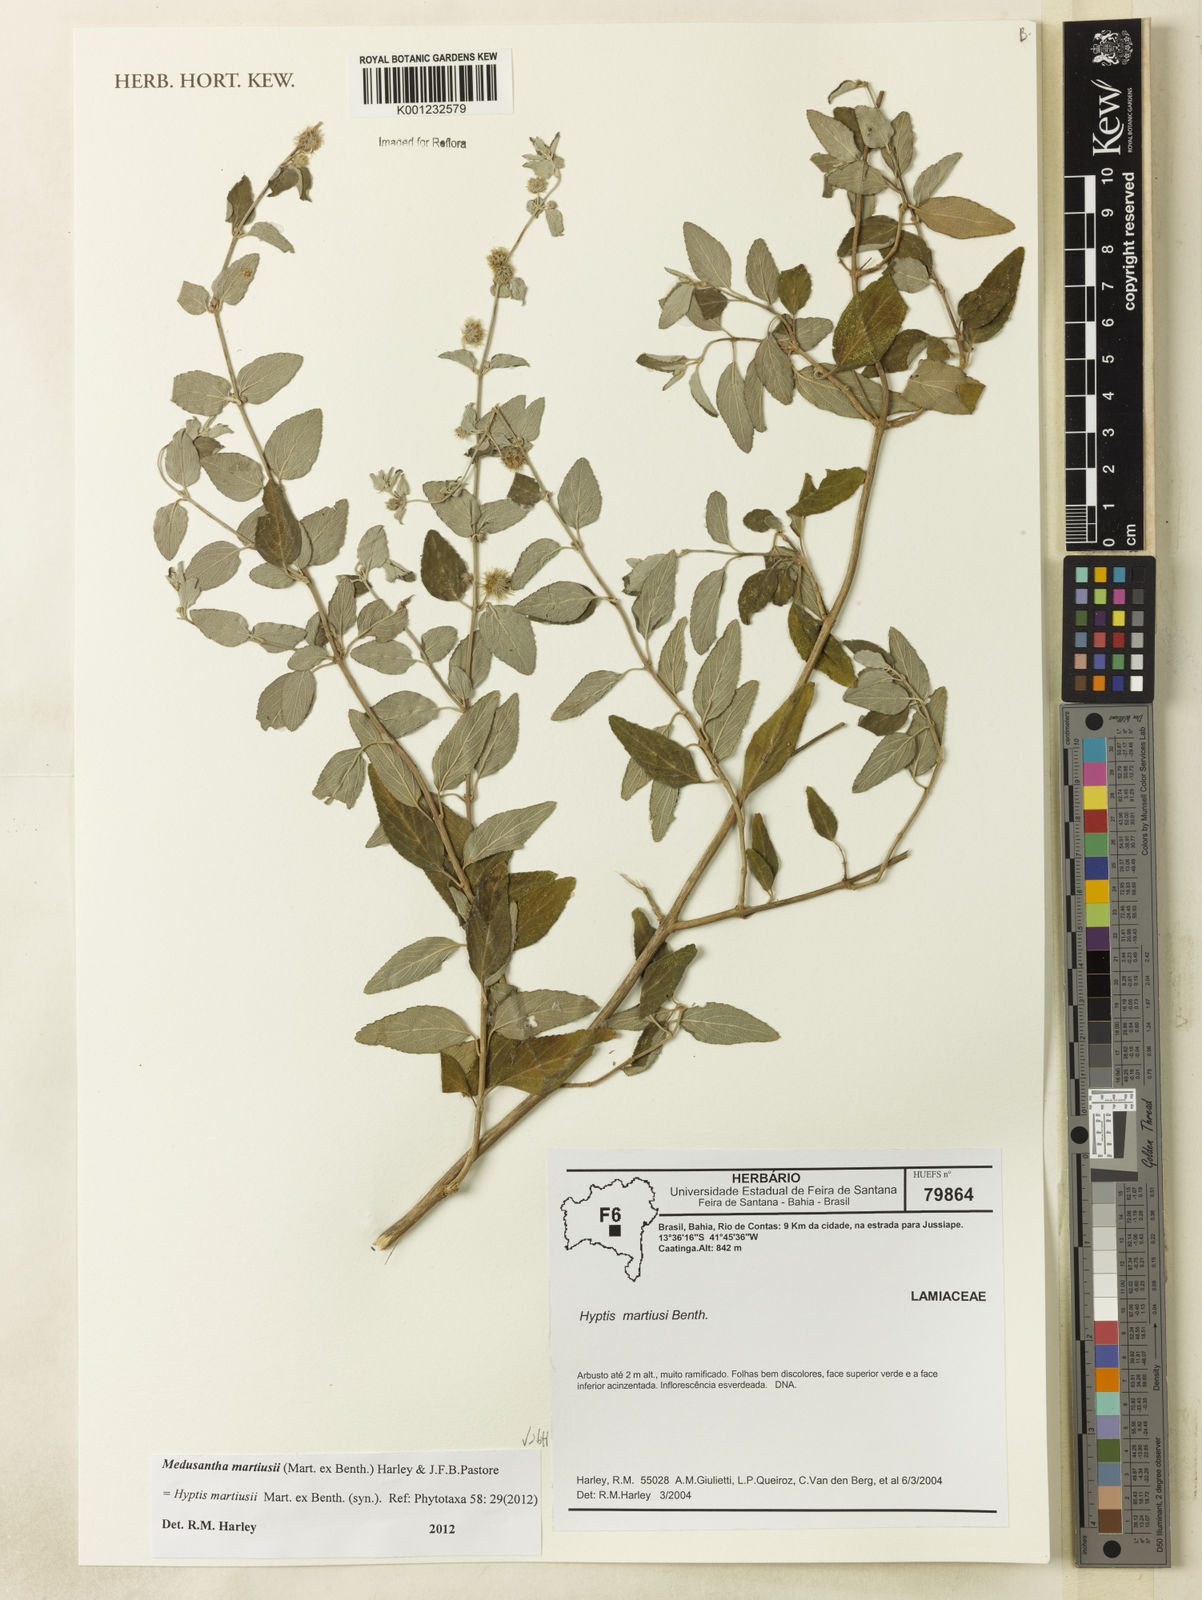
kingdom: Plantae
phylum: Tracheophyta
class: Magnoliopsida
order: Lamiales
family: Lamiaceae
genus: Medusantha
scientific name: Medusantha martiusii
